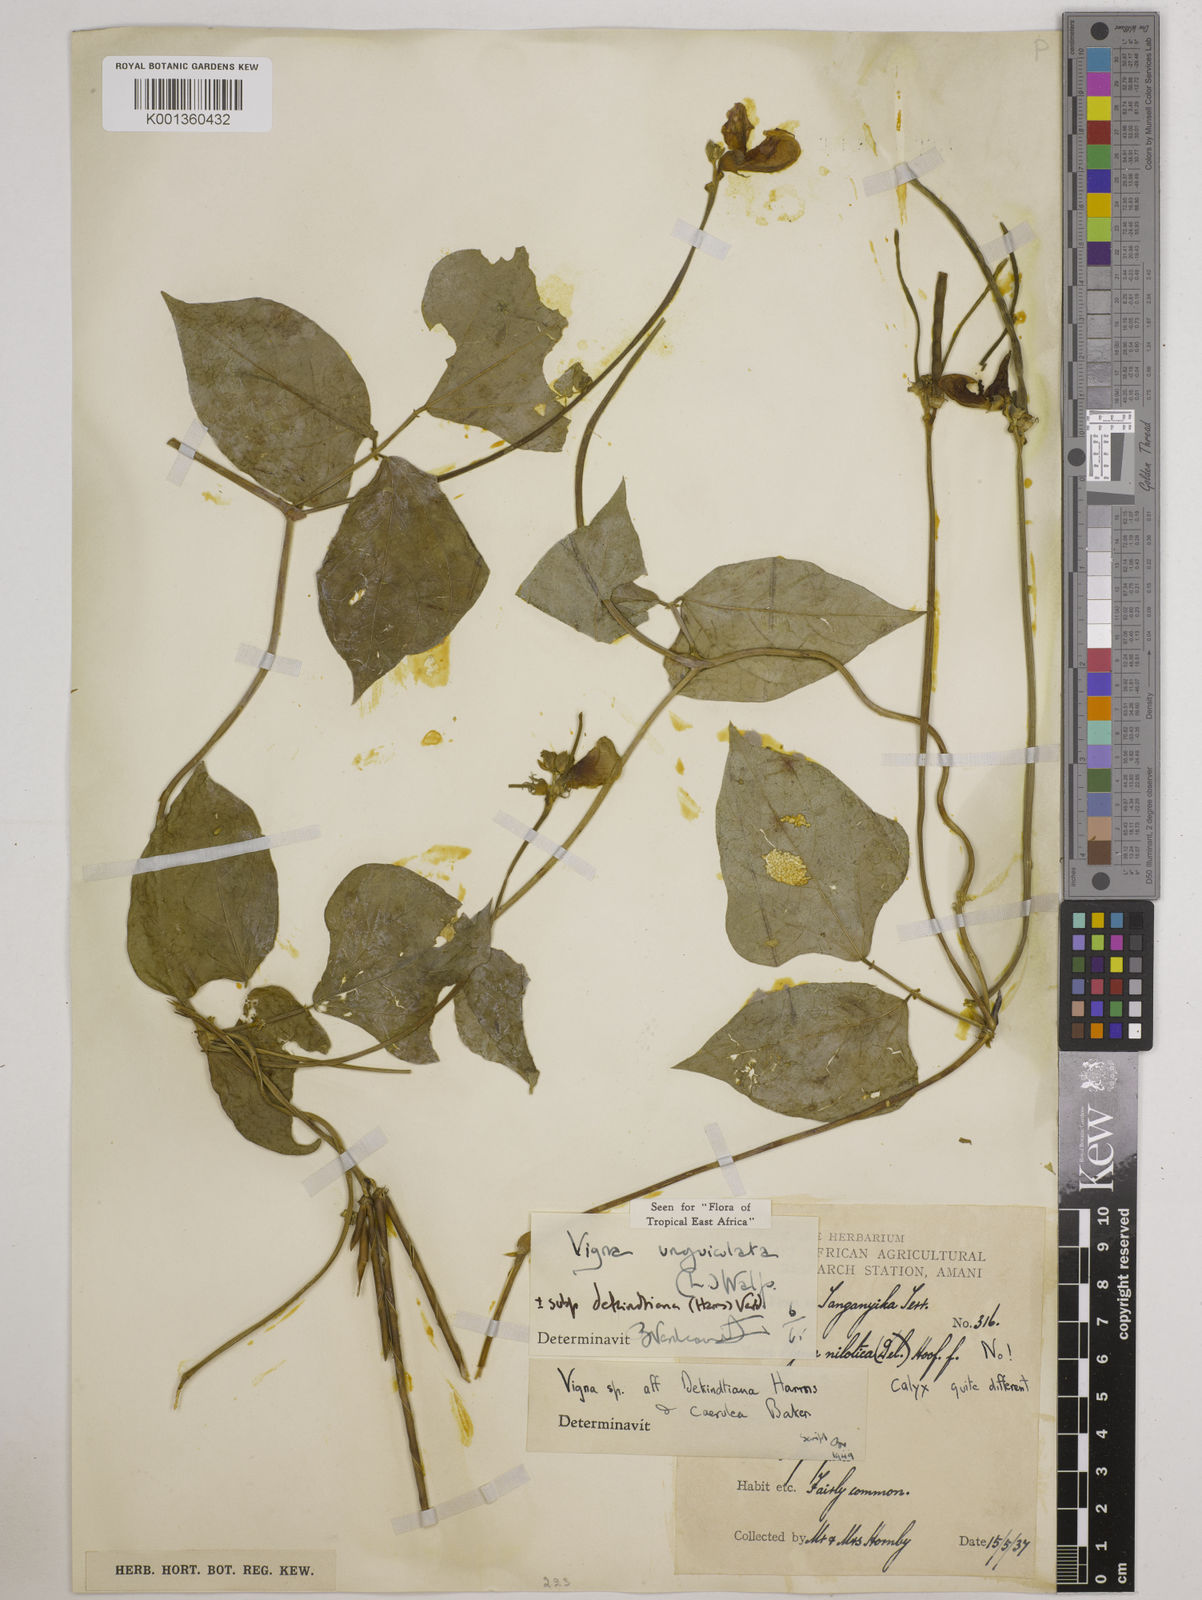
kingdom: Plantae
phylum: Tracheophyta
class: Magnoliopsida
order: Fabales
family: Fabaceae
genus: Vigna
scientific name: Vigna
